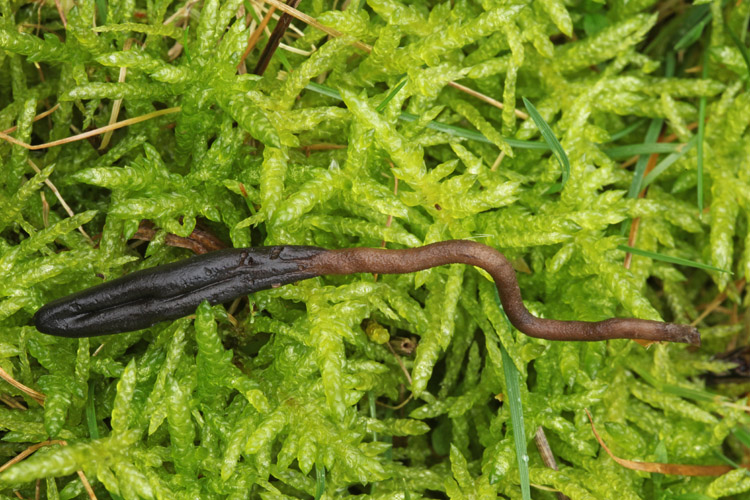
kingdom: Fungi
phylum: Ascomycota
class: Geoglossomycetes
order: Geoglossales
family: Geoglossaceae
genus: Geoglossum
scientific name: Geoglossum fallax
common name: småskællet jordtunge
